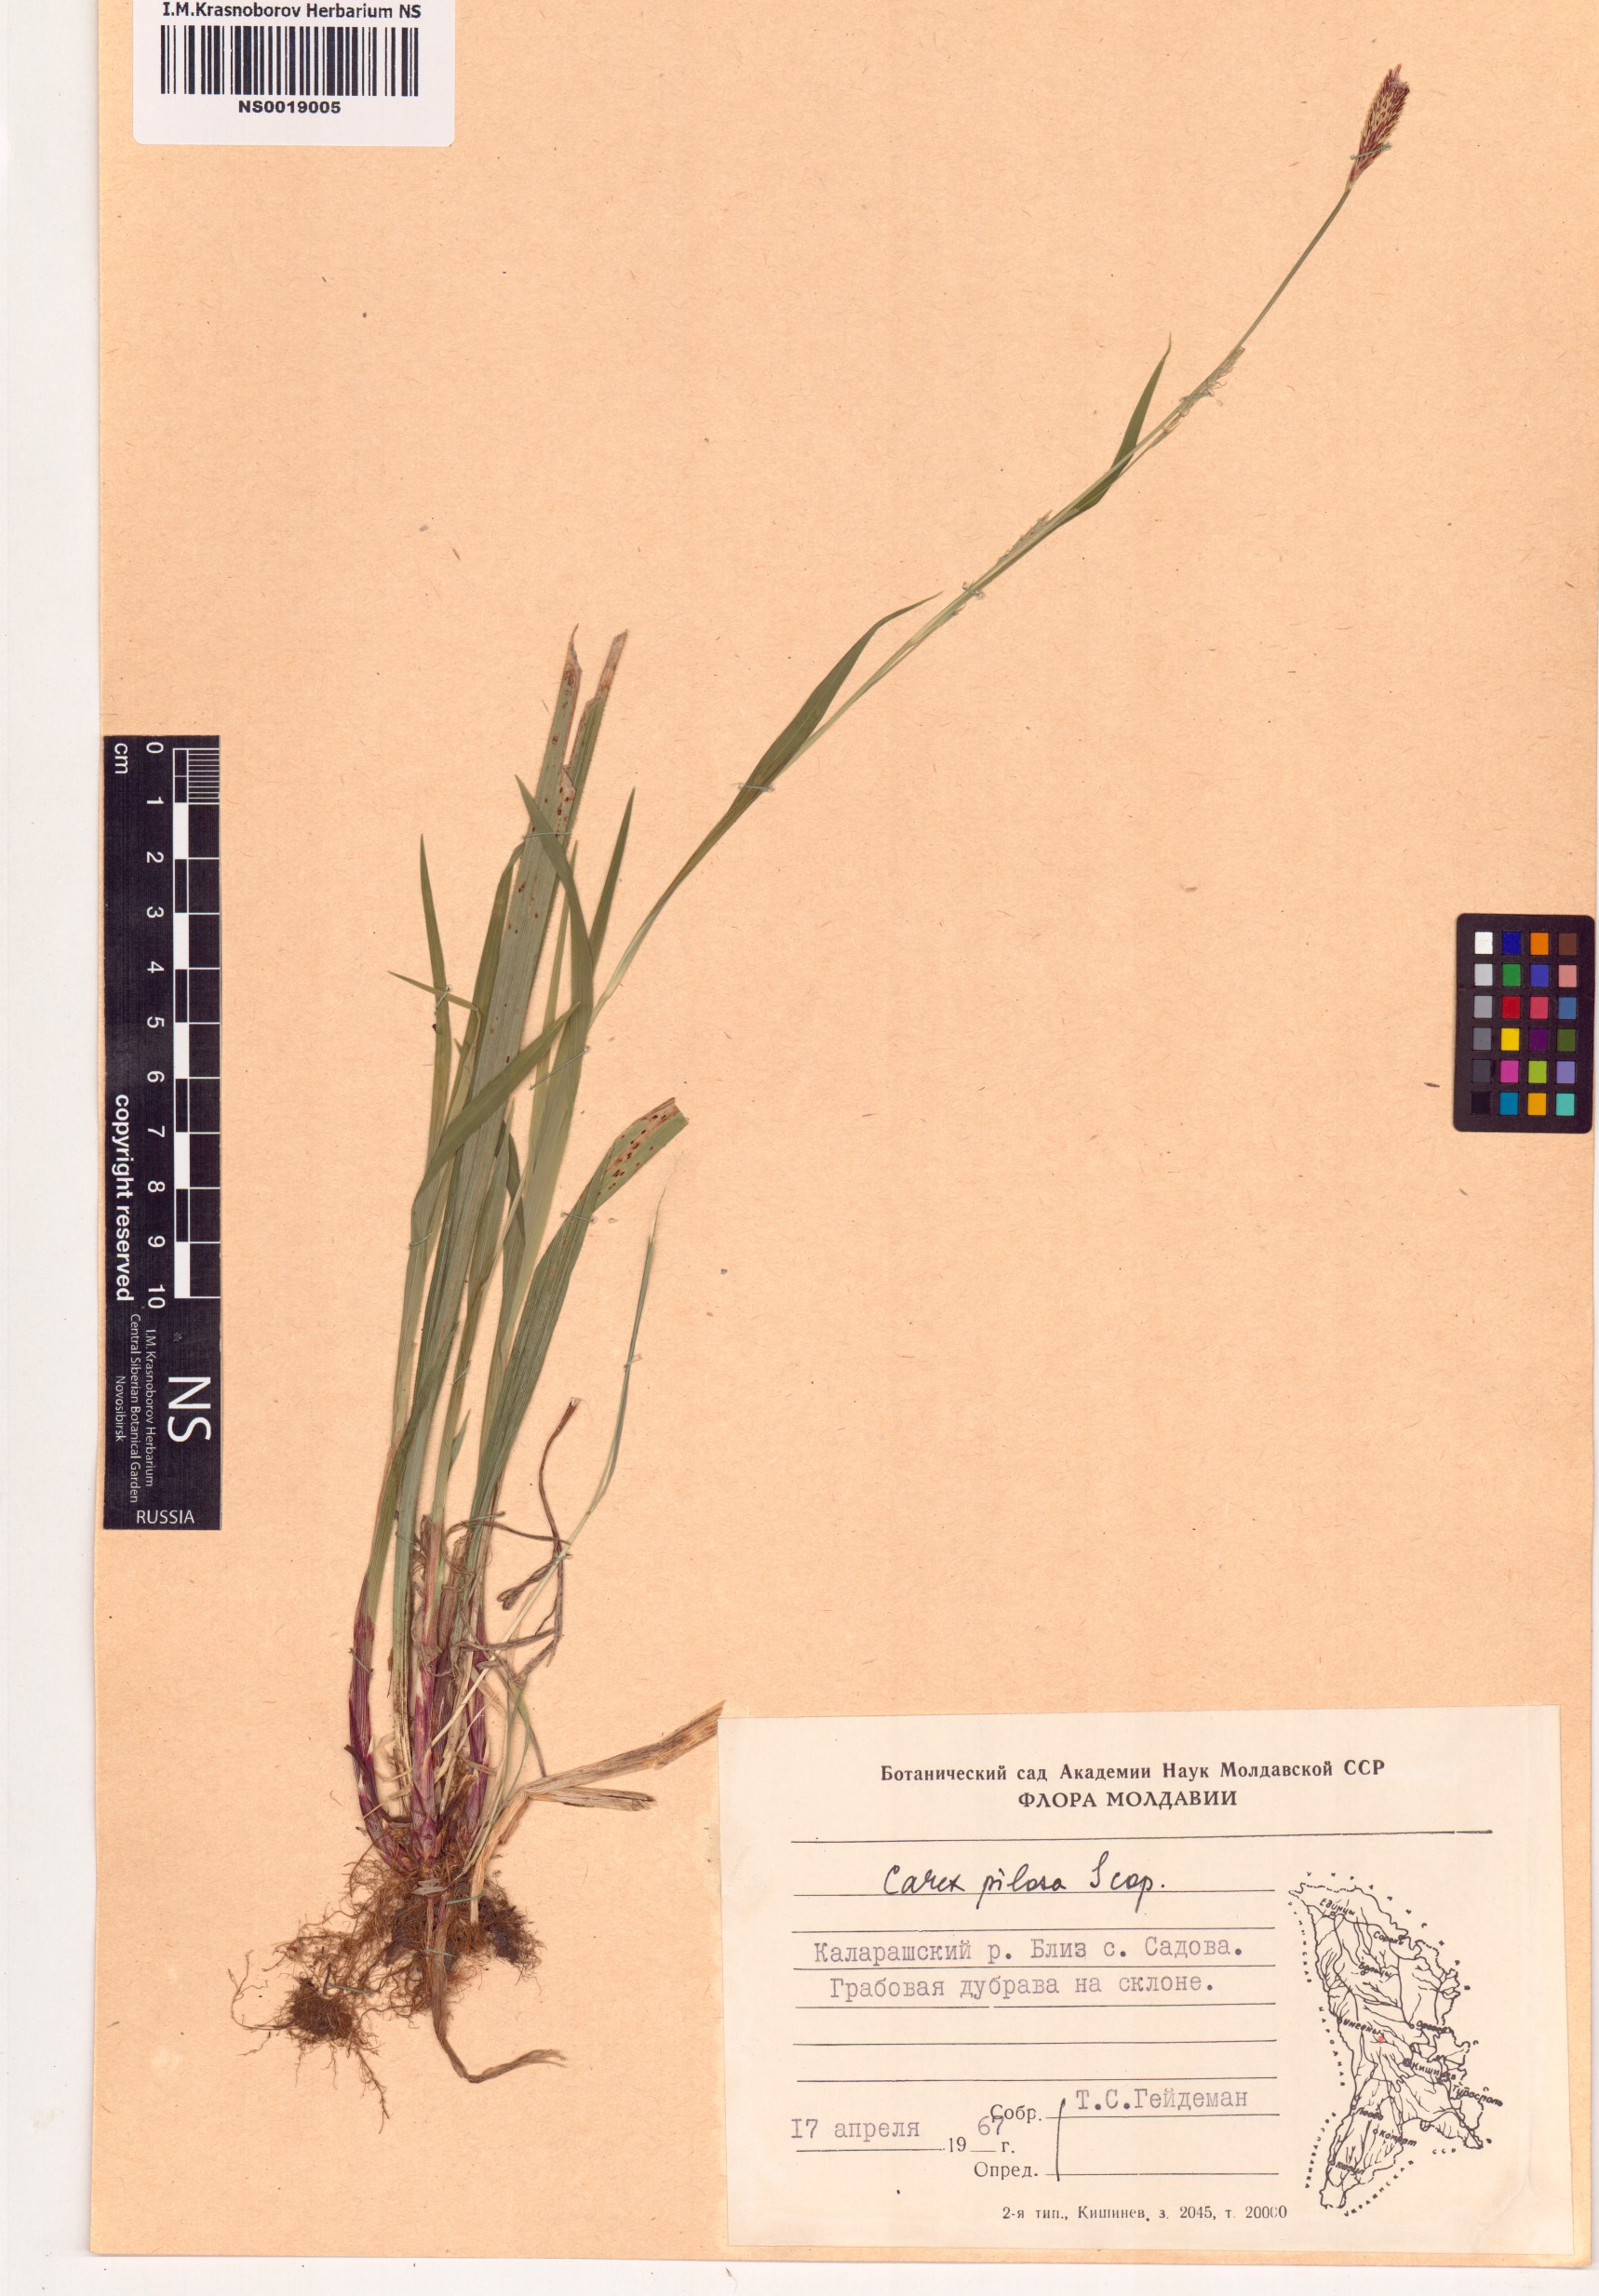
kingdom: Plantae
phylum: Tracheophyta
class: Liliopsida
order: Poales
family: Cyperaceae
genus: Carex
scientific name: Carex pilosa
